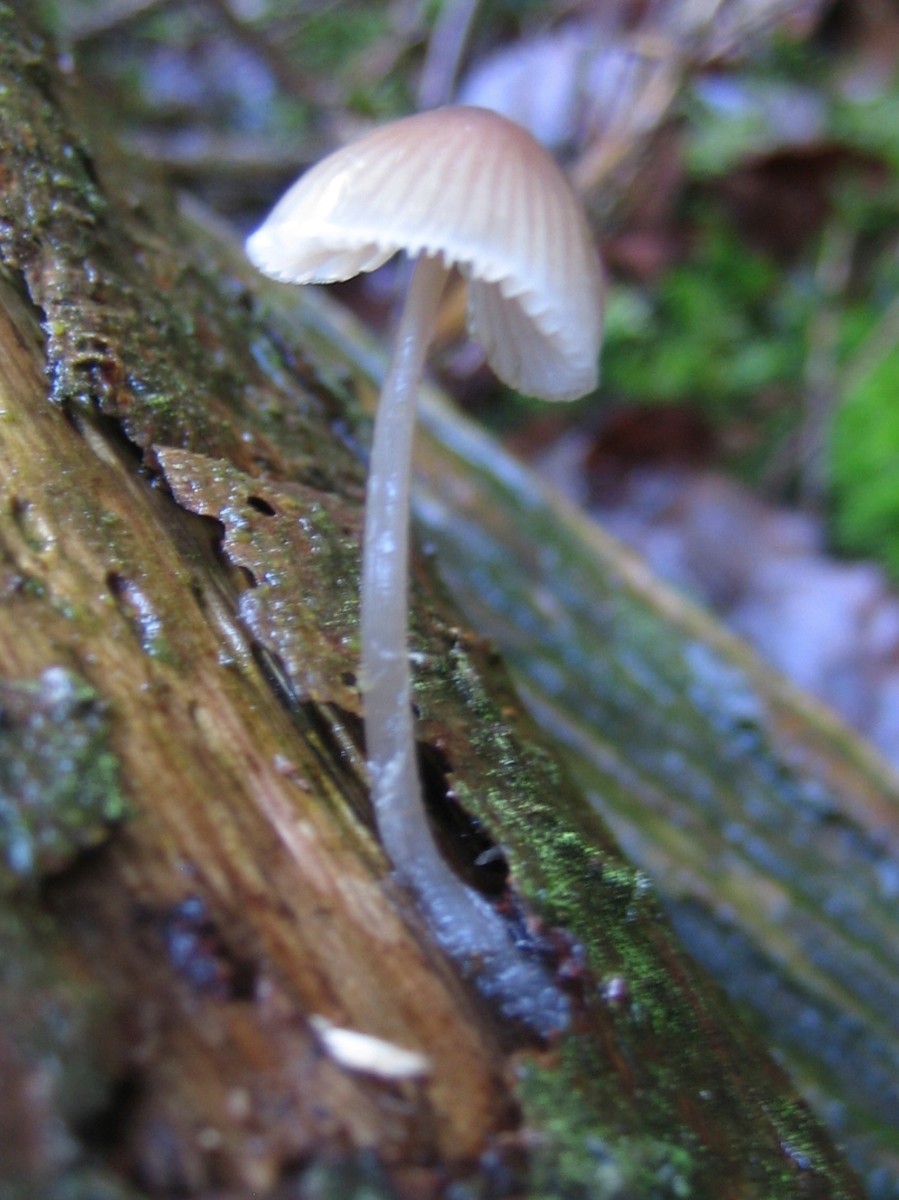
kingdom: Fungi
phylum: Basidiomycota
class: Agaricomycetes
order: Agaricales
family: Mycenaceae
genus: Mycena
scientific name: Mycena metata
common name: rødlig huesvamp
